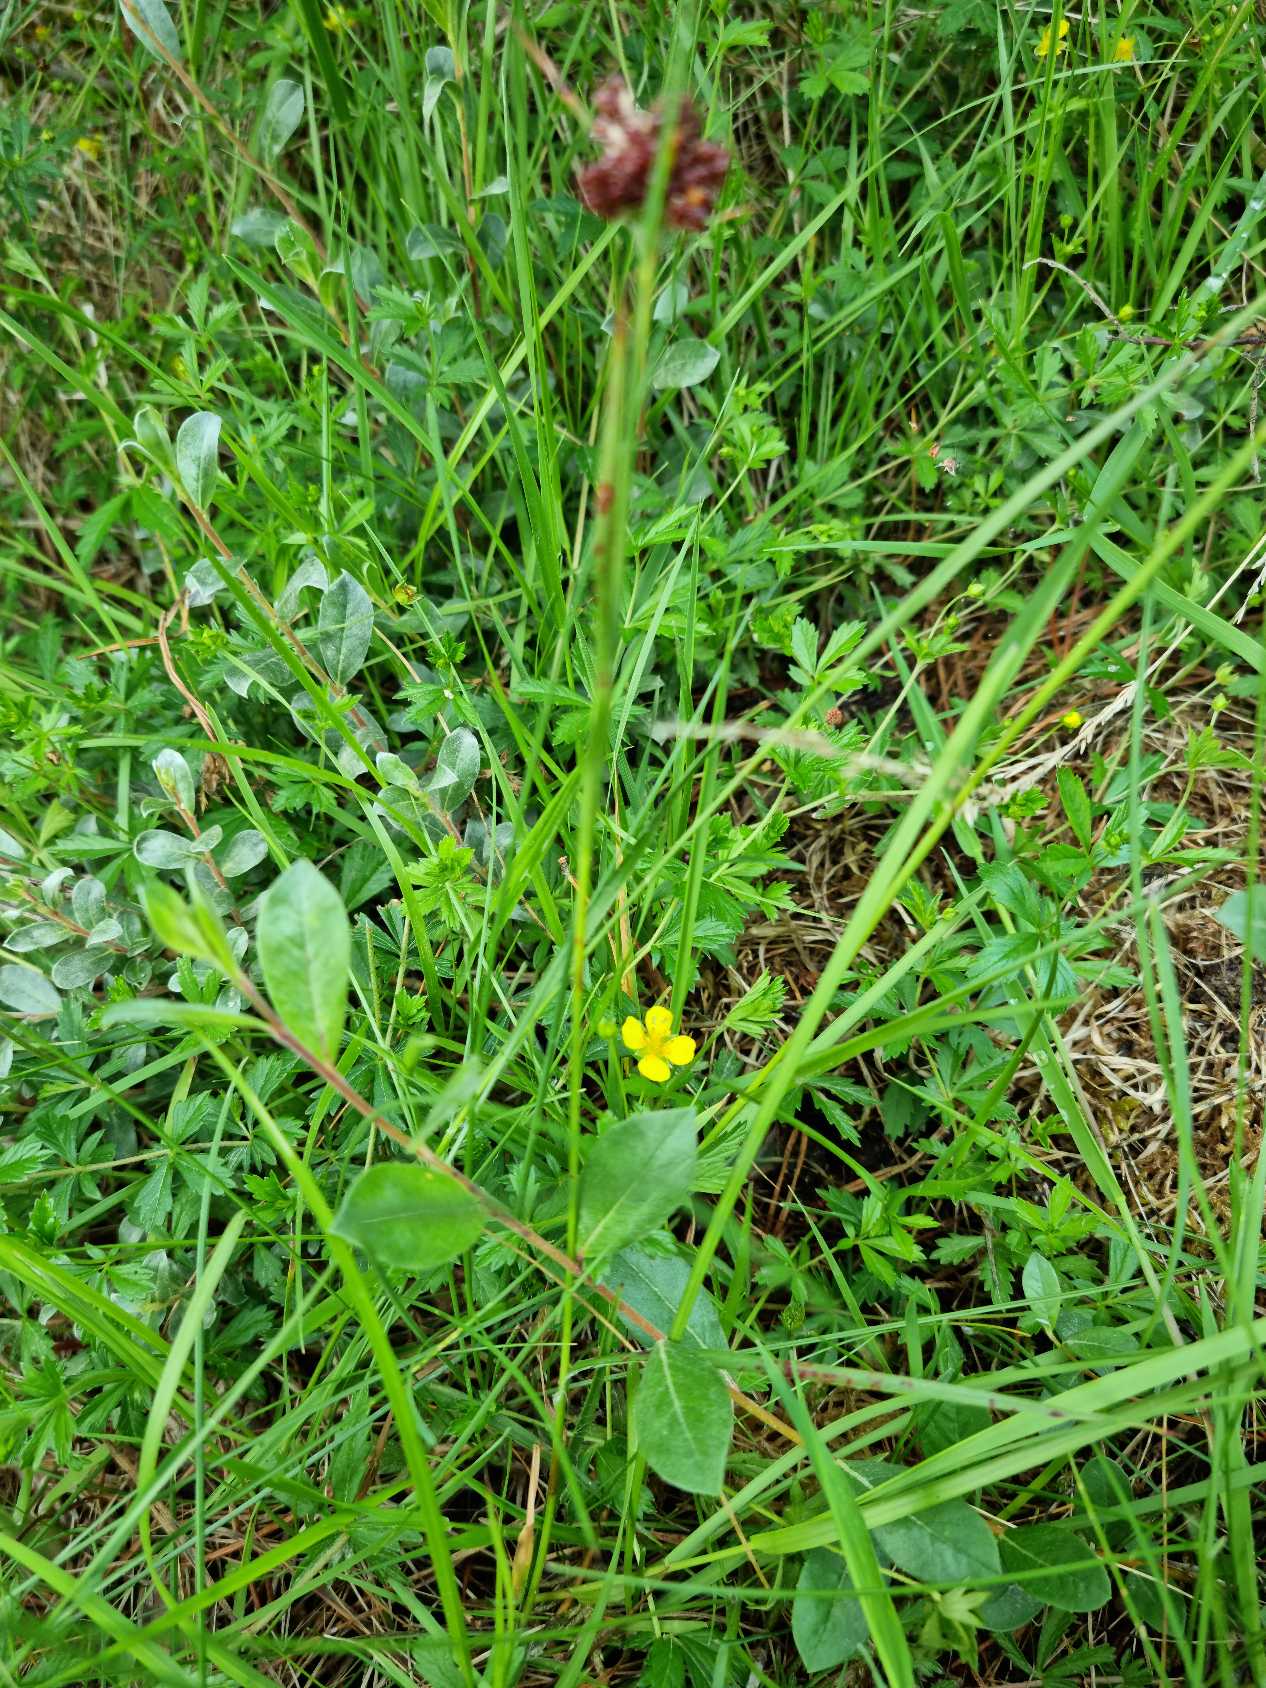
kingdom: Plantae
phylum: Tracheophyta
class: Magnoliopsida
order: Rosales
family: Rosaceae
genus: Potentilla
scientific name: Potentilla erecta
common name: Tormentil
